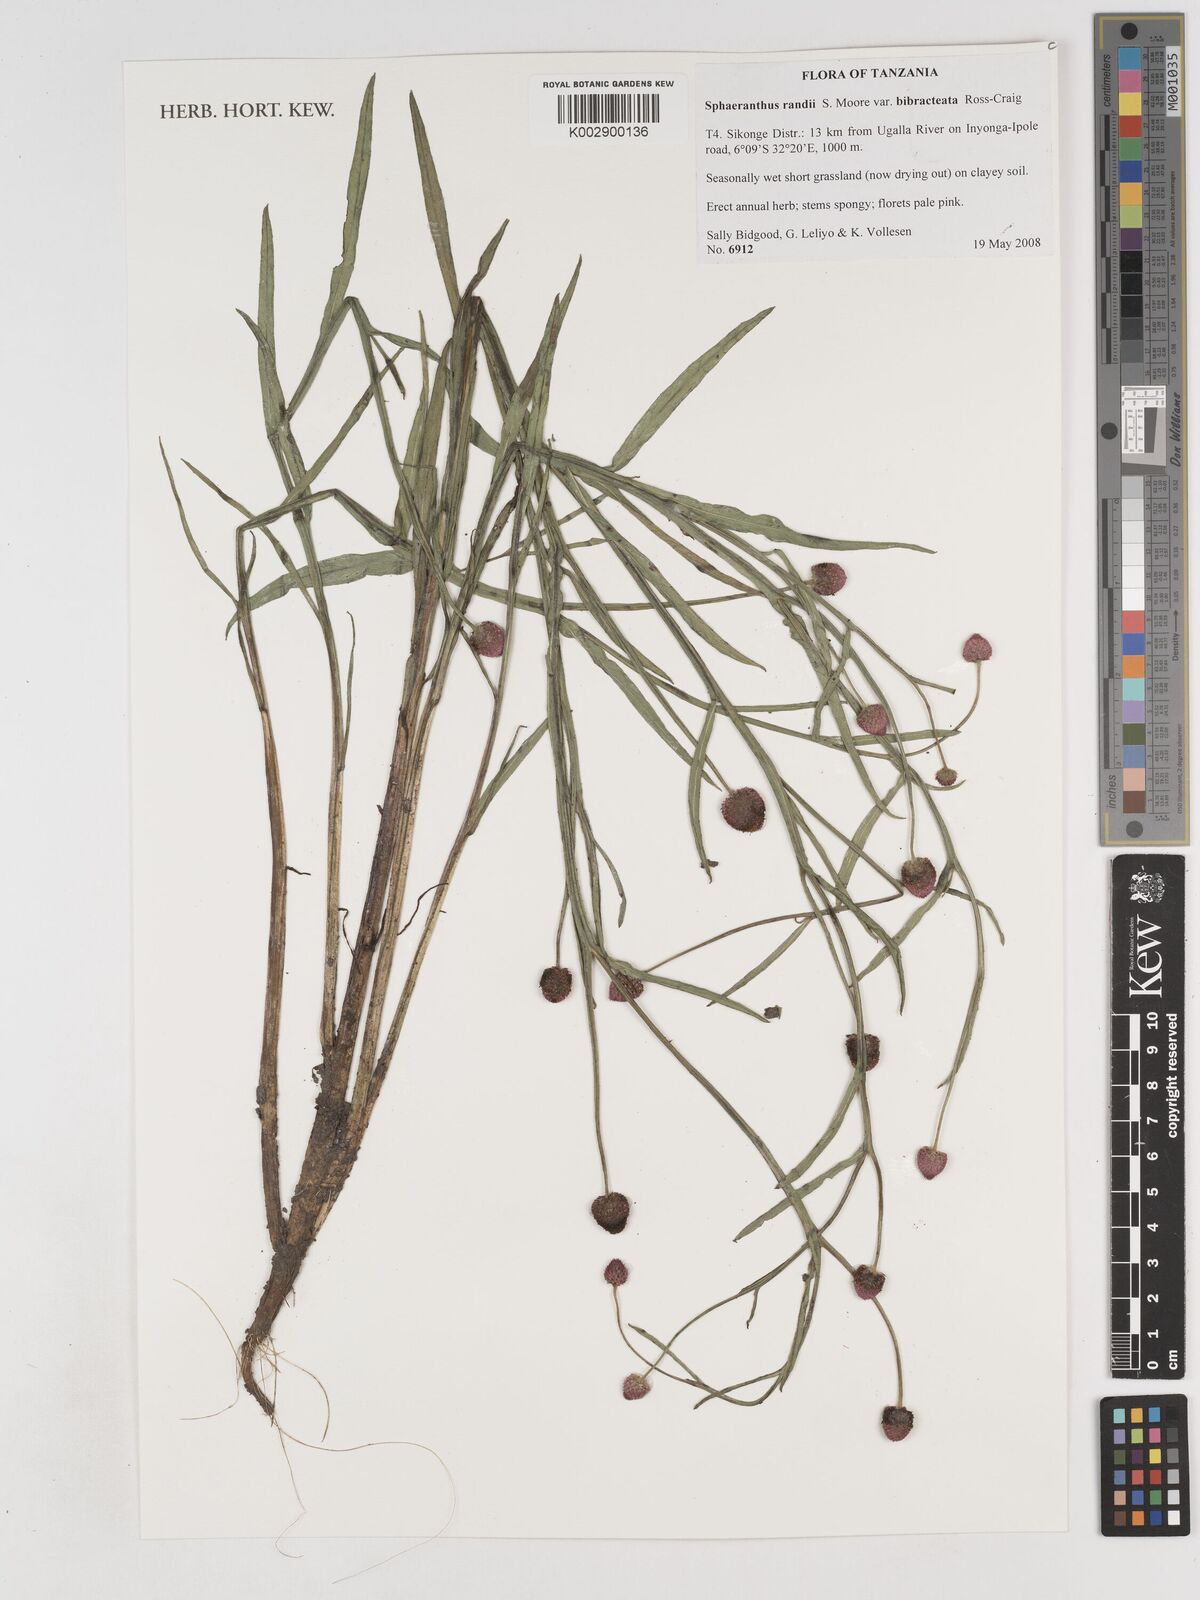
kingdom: Plantae
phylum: Tracheophyta
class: Magnoliopsida
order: Asterales
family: Asteraceae
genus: Sphaeranthus
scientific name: Sphaeranthus randii
